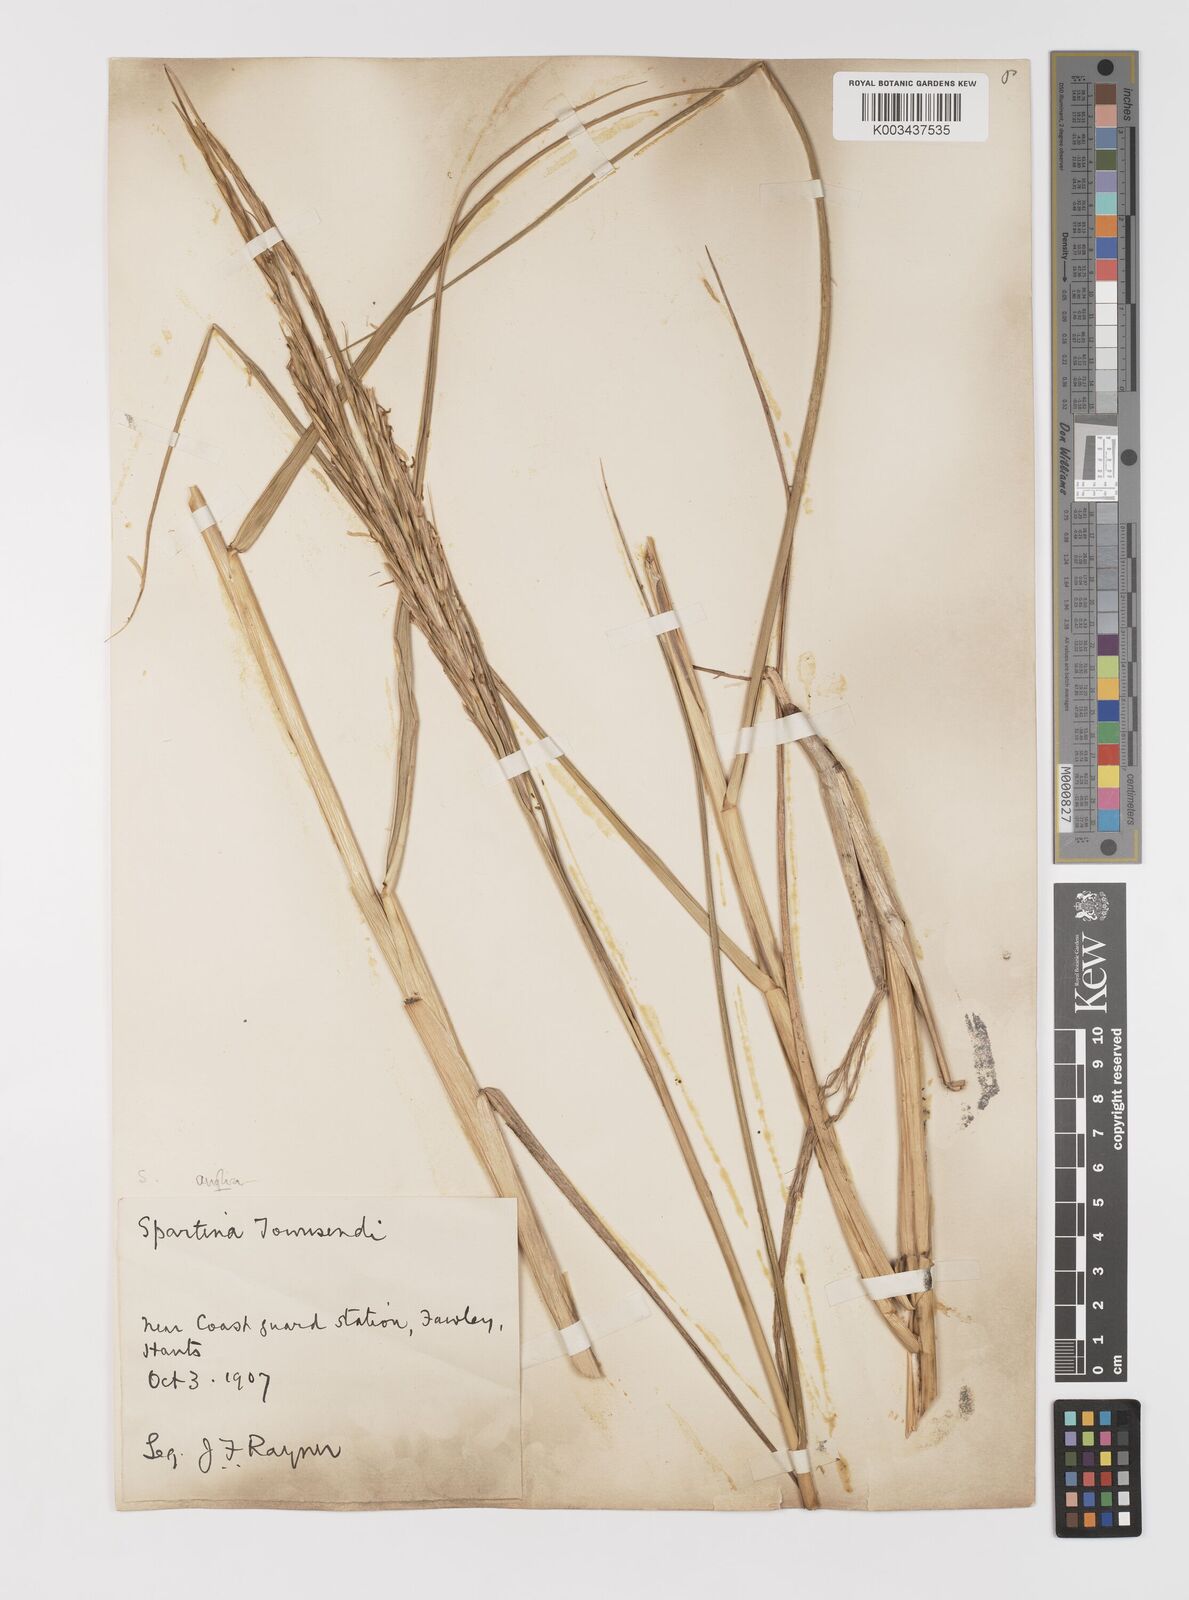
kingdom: Plantae
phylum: Tracheophyta
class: Liliopsida
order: Poales
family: Poaceae
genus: Sporobolus
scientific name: Sporobolus anglicus
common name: English cordgrass
